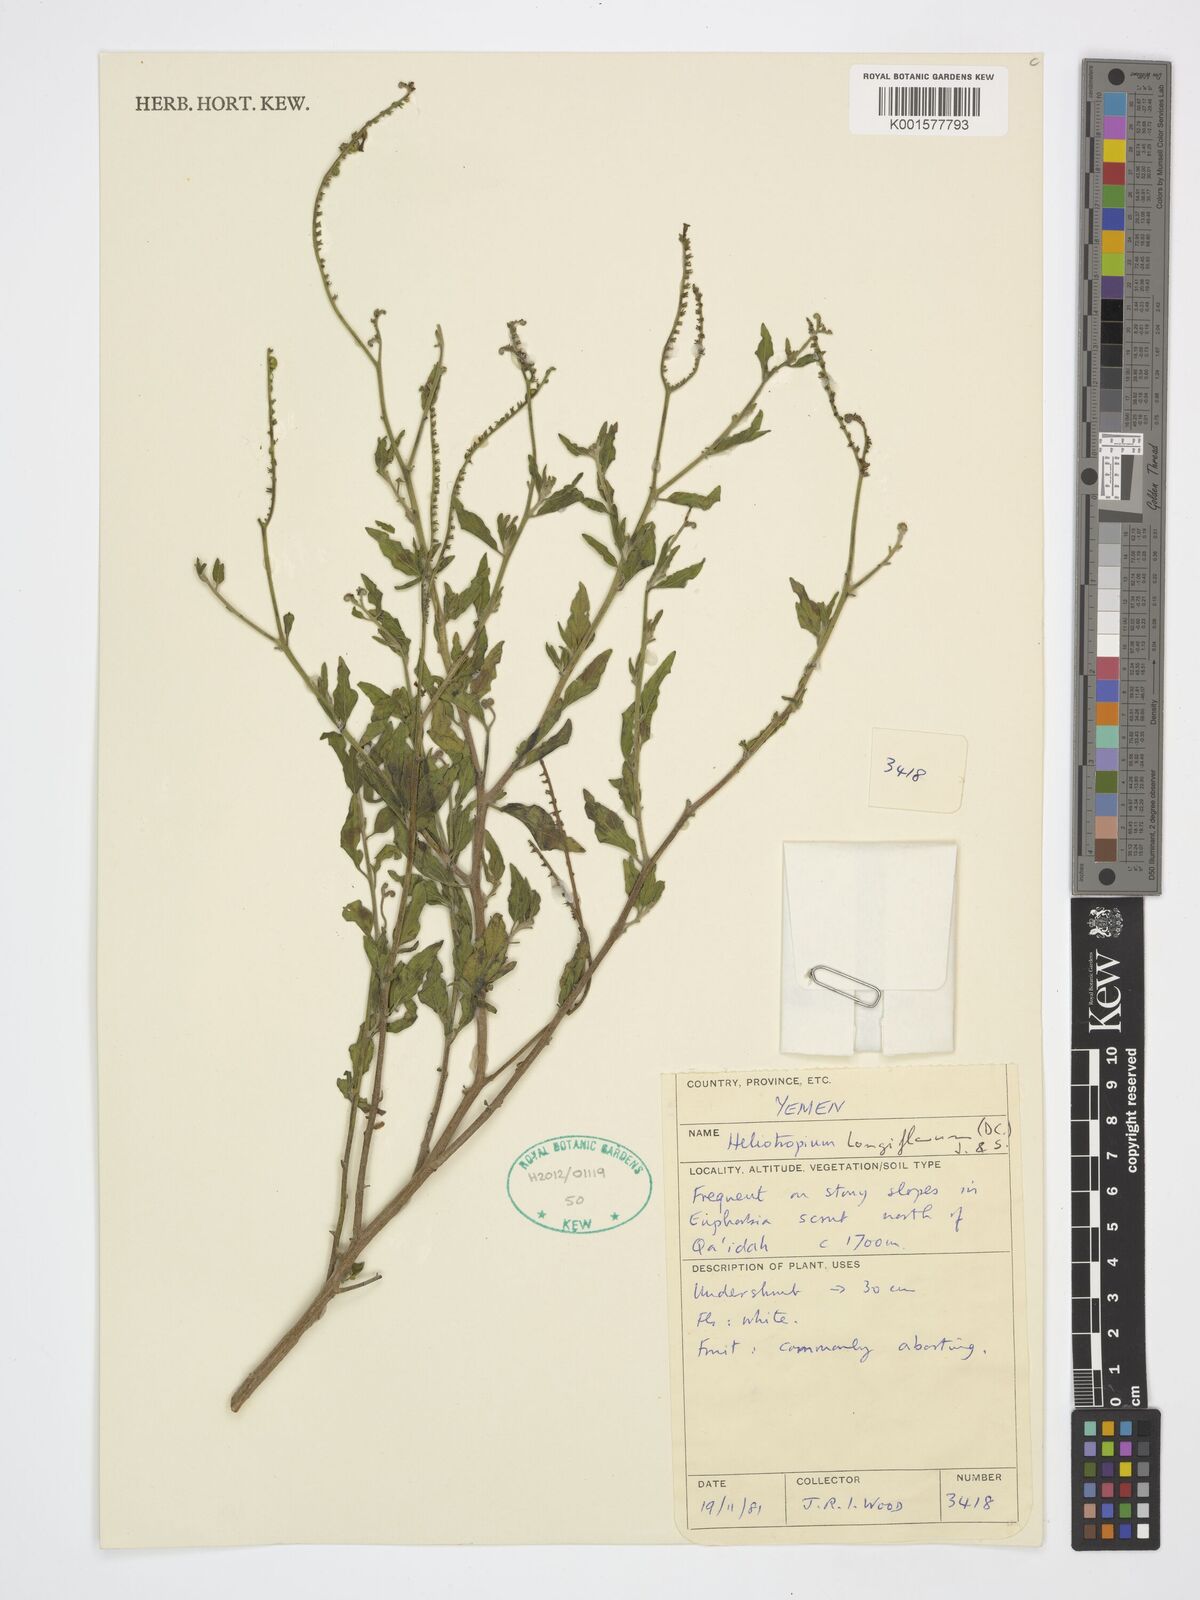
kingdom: Plantae
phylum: Tracheophyta
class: Magnoliopsida
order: Boraginales
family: Heliotropiaceae
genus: Heliotropium
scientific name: Heliotropium longiflorum
